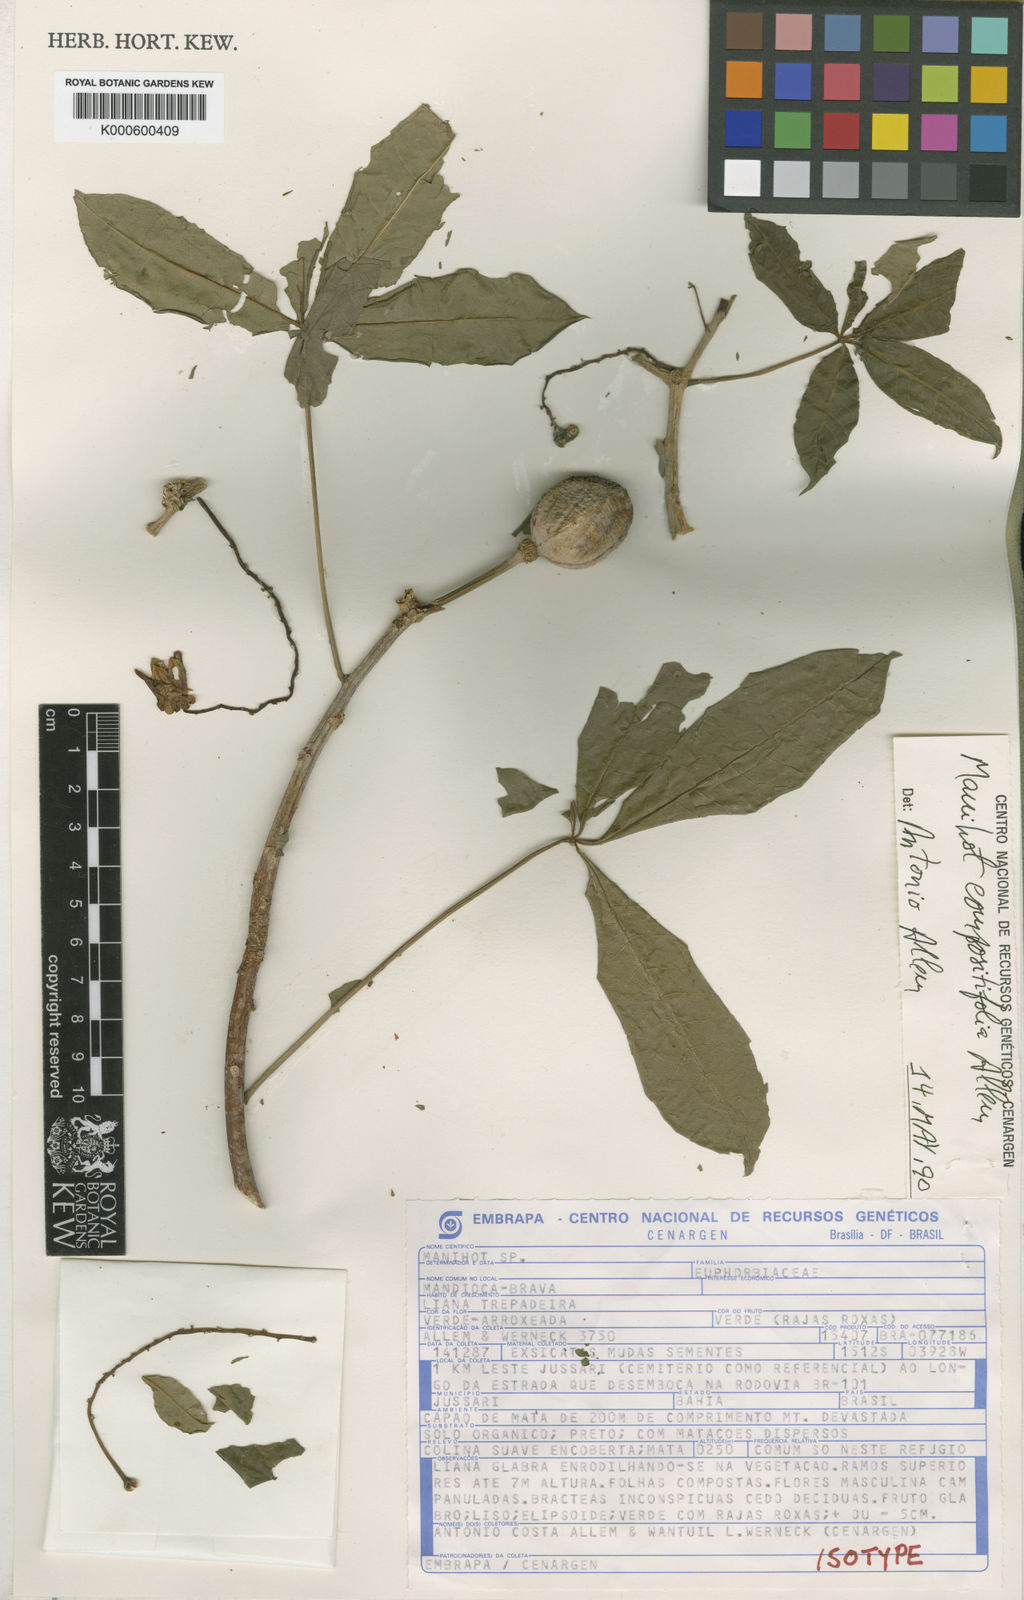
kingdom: Plantae
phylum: Tracheophyta
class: Magnoliopsida
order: Malpighiales
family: Euphorbiaceae
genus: Manihot
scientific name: Manihot compositifolia
